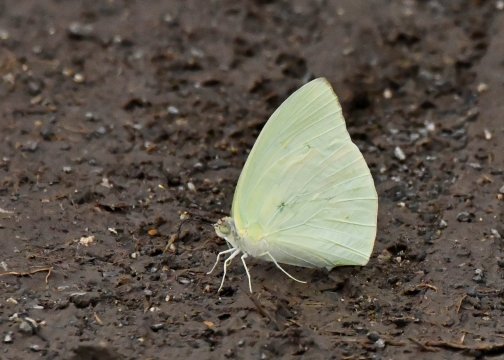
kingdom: Animalia
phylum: Arthropoda
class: Insecta
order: Lepidoptera
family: Pieridae
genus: Aphrissa
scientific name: Aphrissa statira
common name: Statira Sulphur
